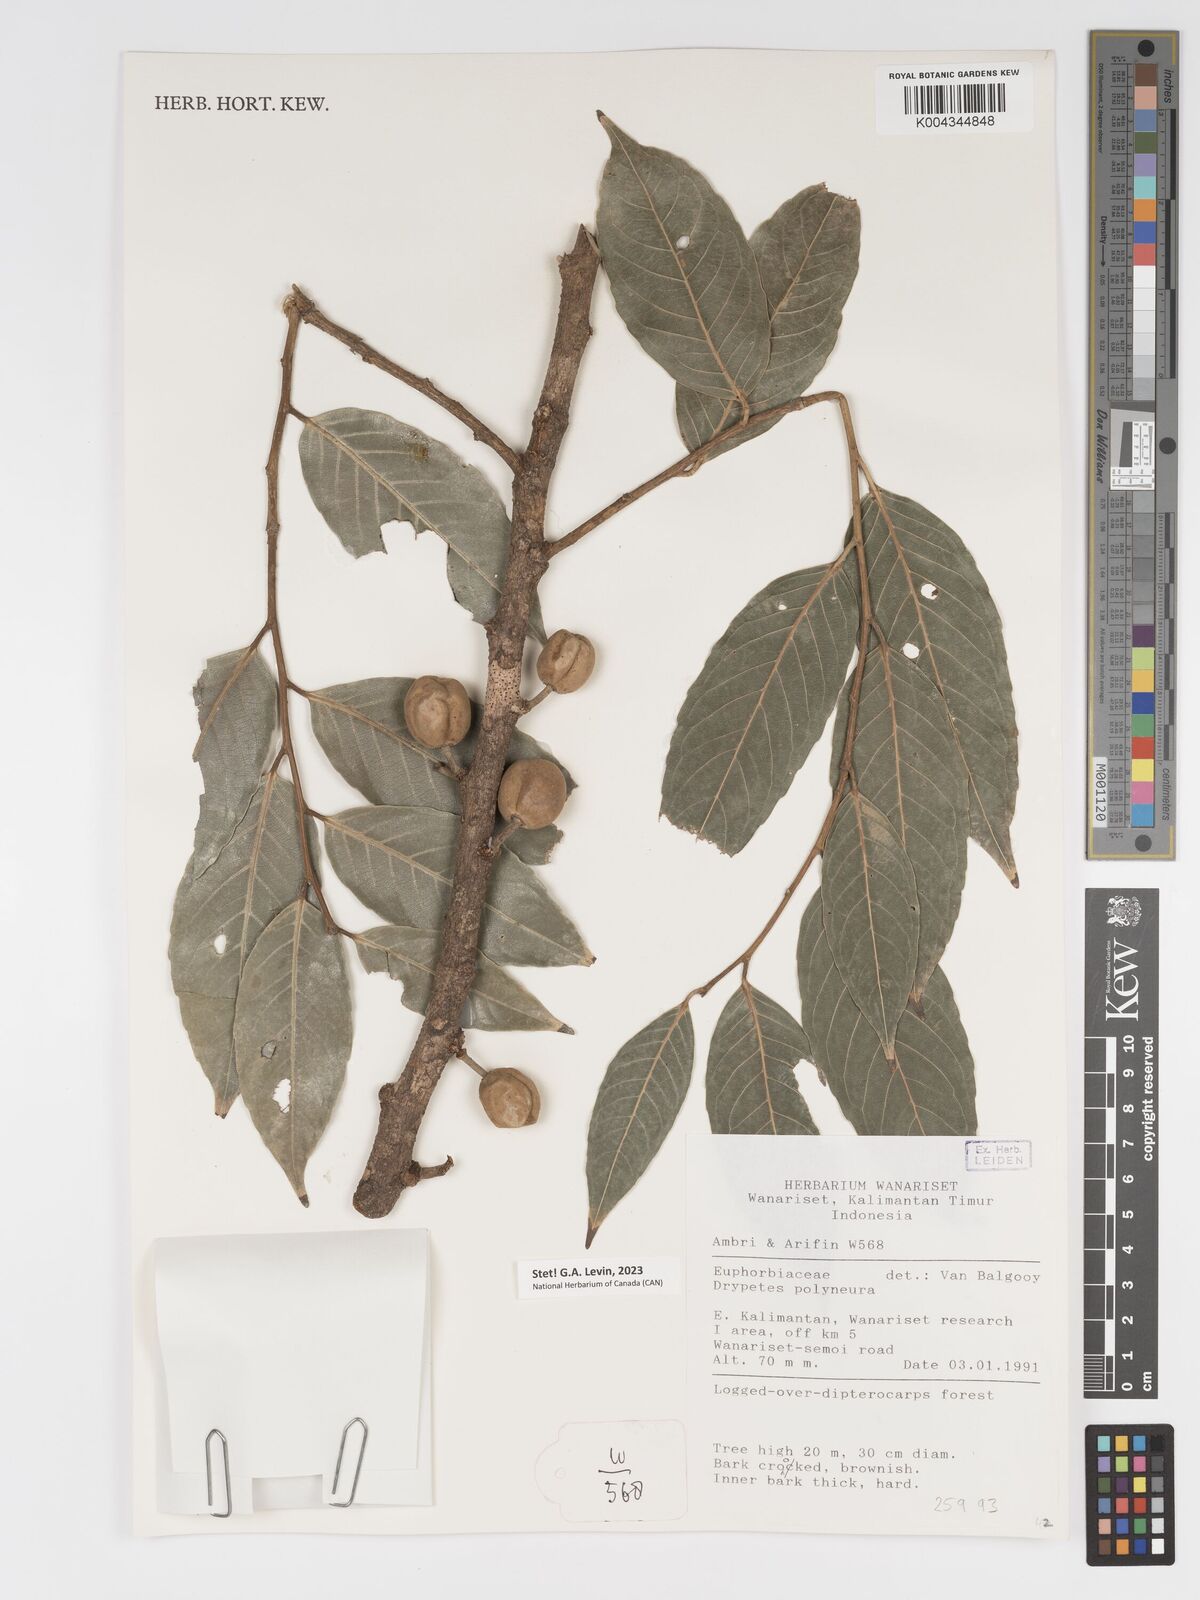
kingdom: Plantae
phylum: Tracheophyta
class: Magnoliopsida
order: Malpighiales
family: Putranjivaceae
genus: Drypetes
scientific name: Drypetes polyneura
